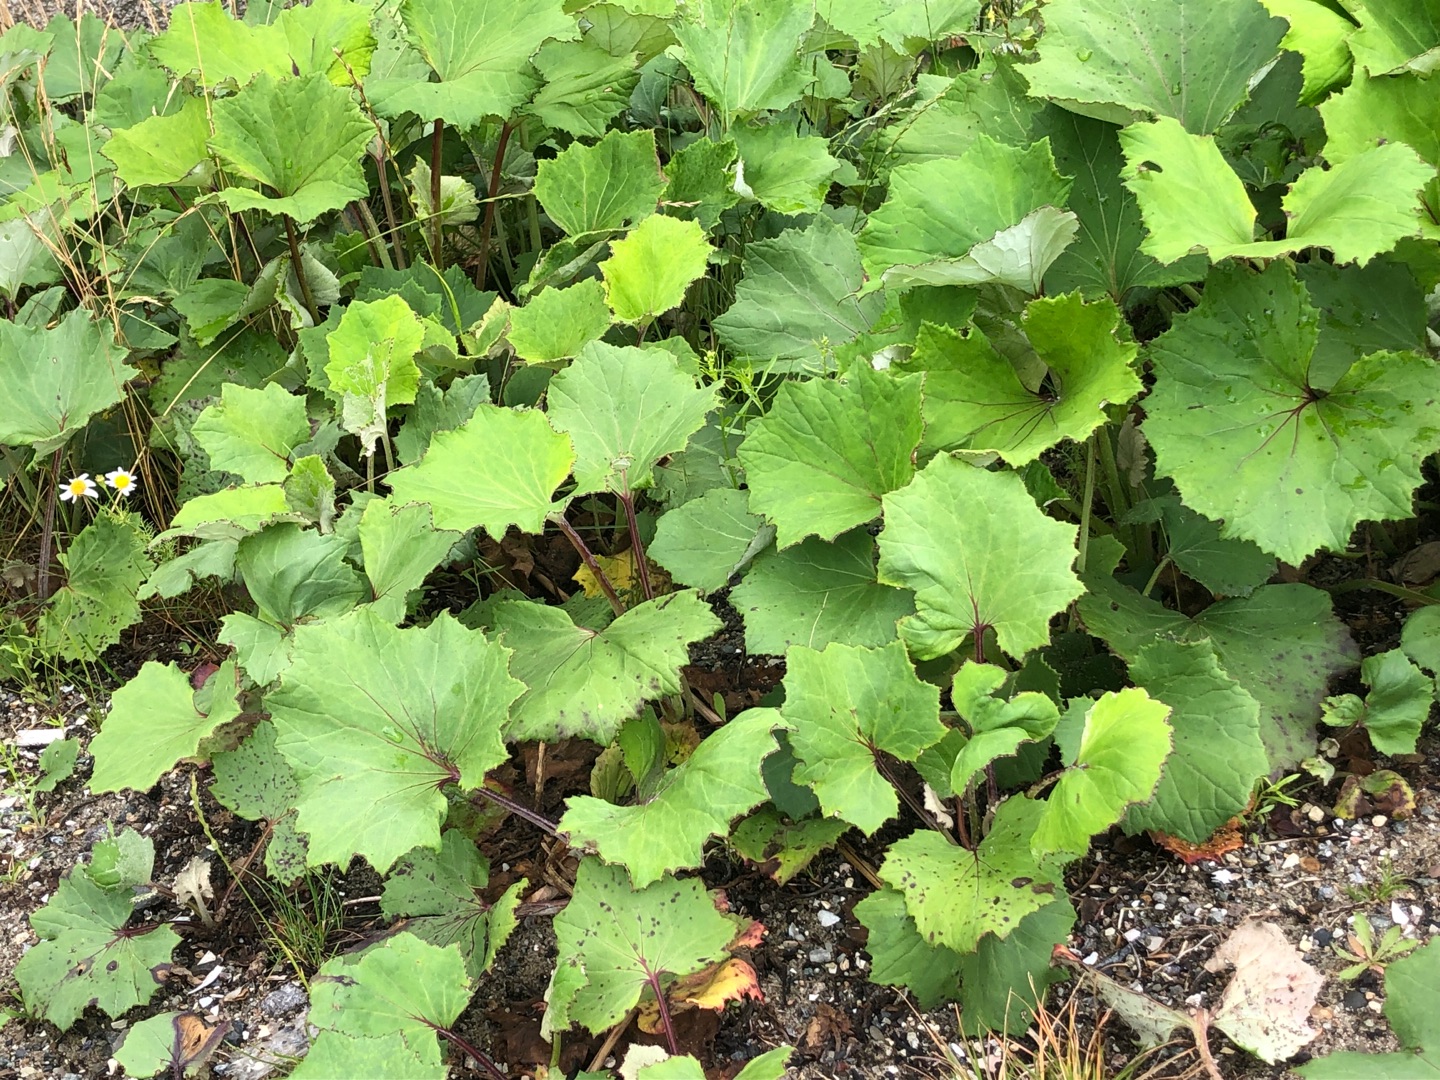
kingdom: Plantae
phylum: Tracheophyta
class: Magnoliopsida
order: Asterales
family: Asteraceae
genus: Tussilago
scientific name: Tussilago farfara
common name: Følfod
